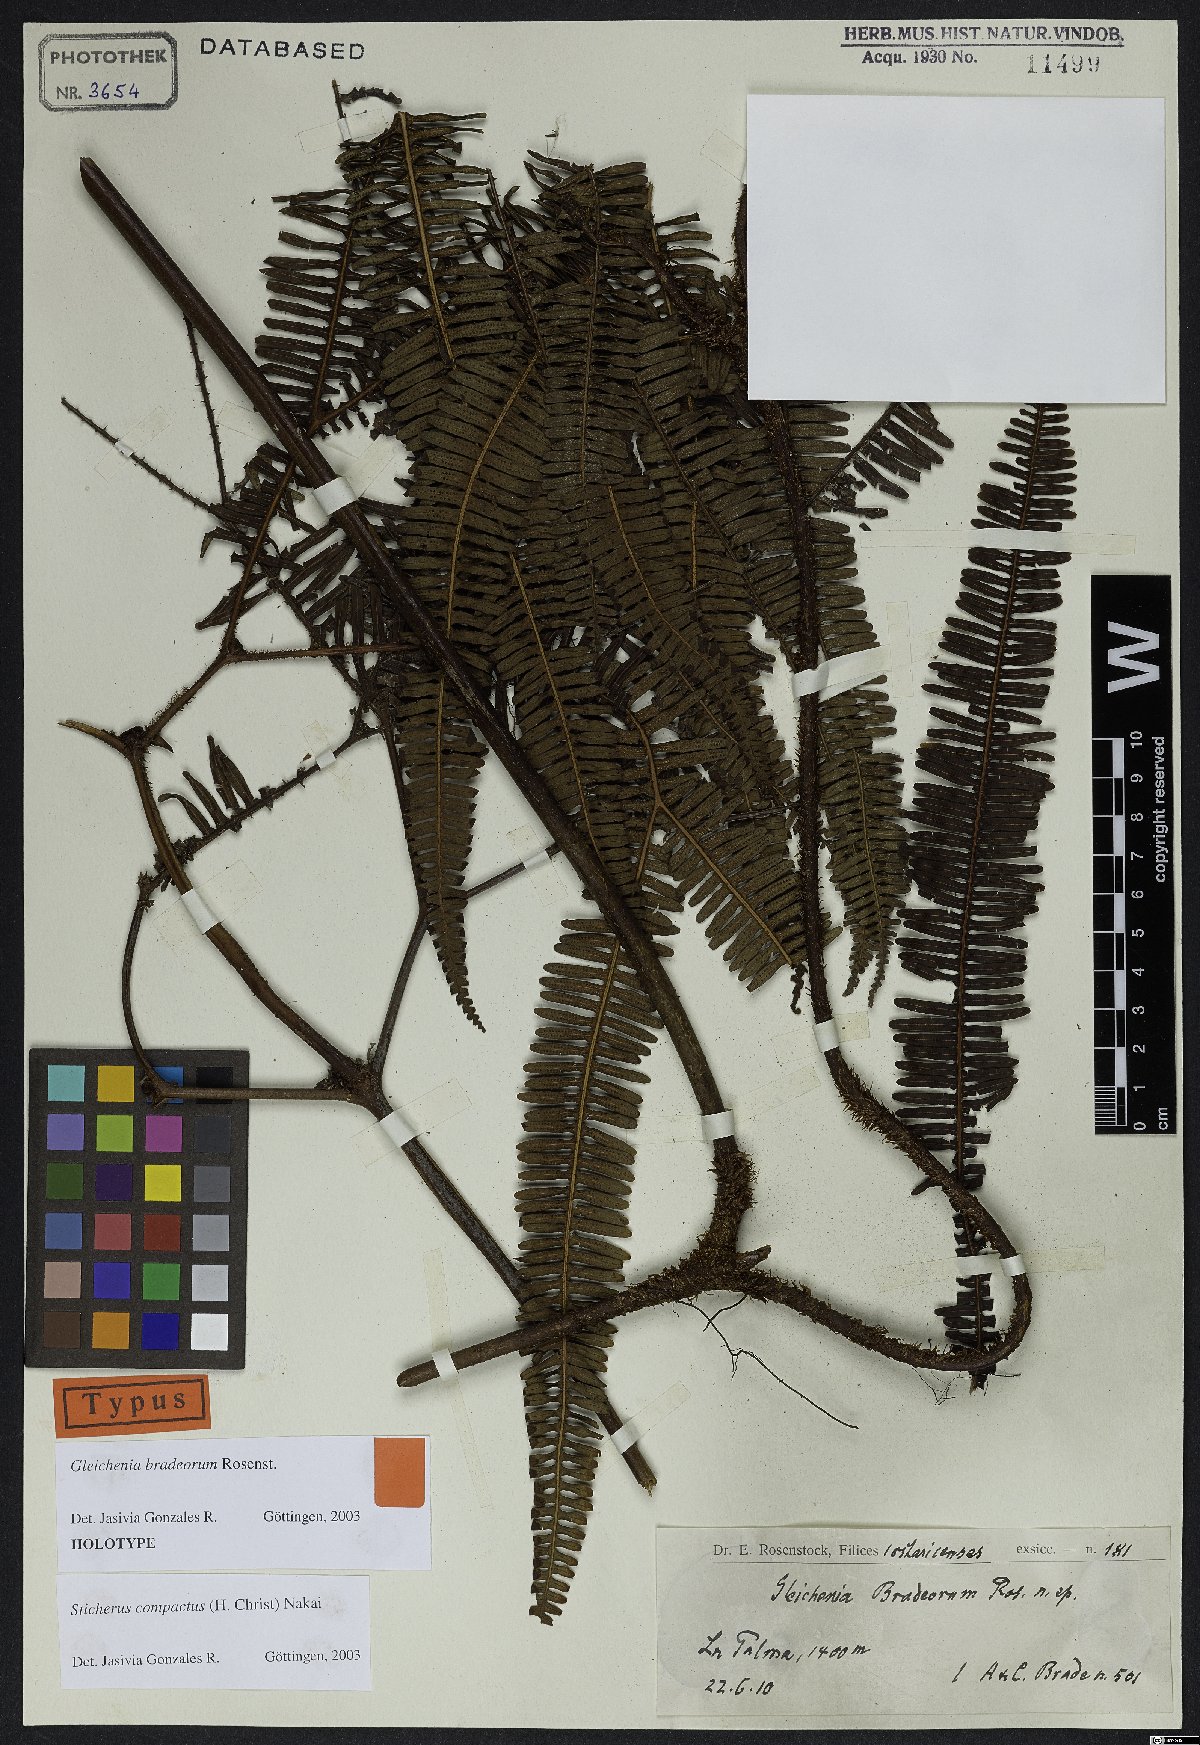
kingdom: Plantae
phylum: Tracheophyta
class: Polypodiopsida
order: Gleicheniales
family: Gleicheniaceae
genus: Sticherus
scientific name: Sticherus compactus
